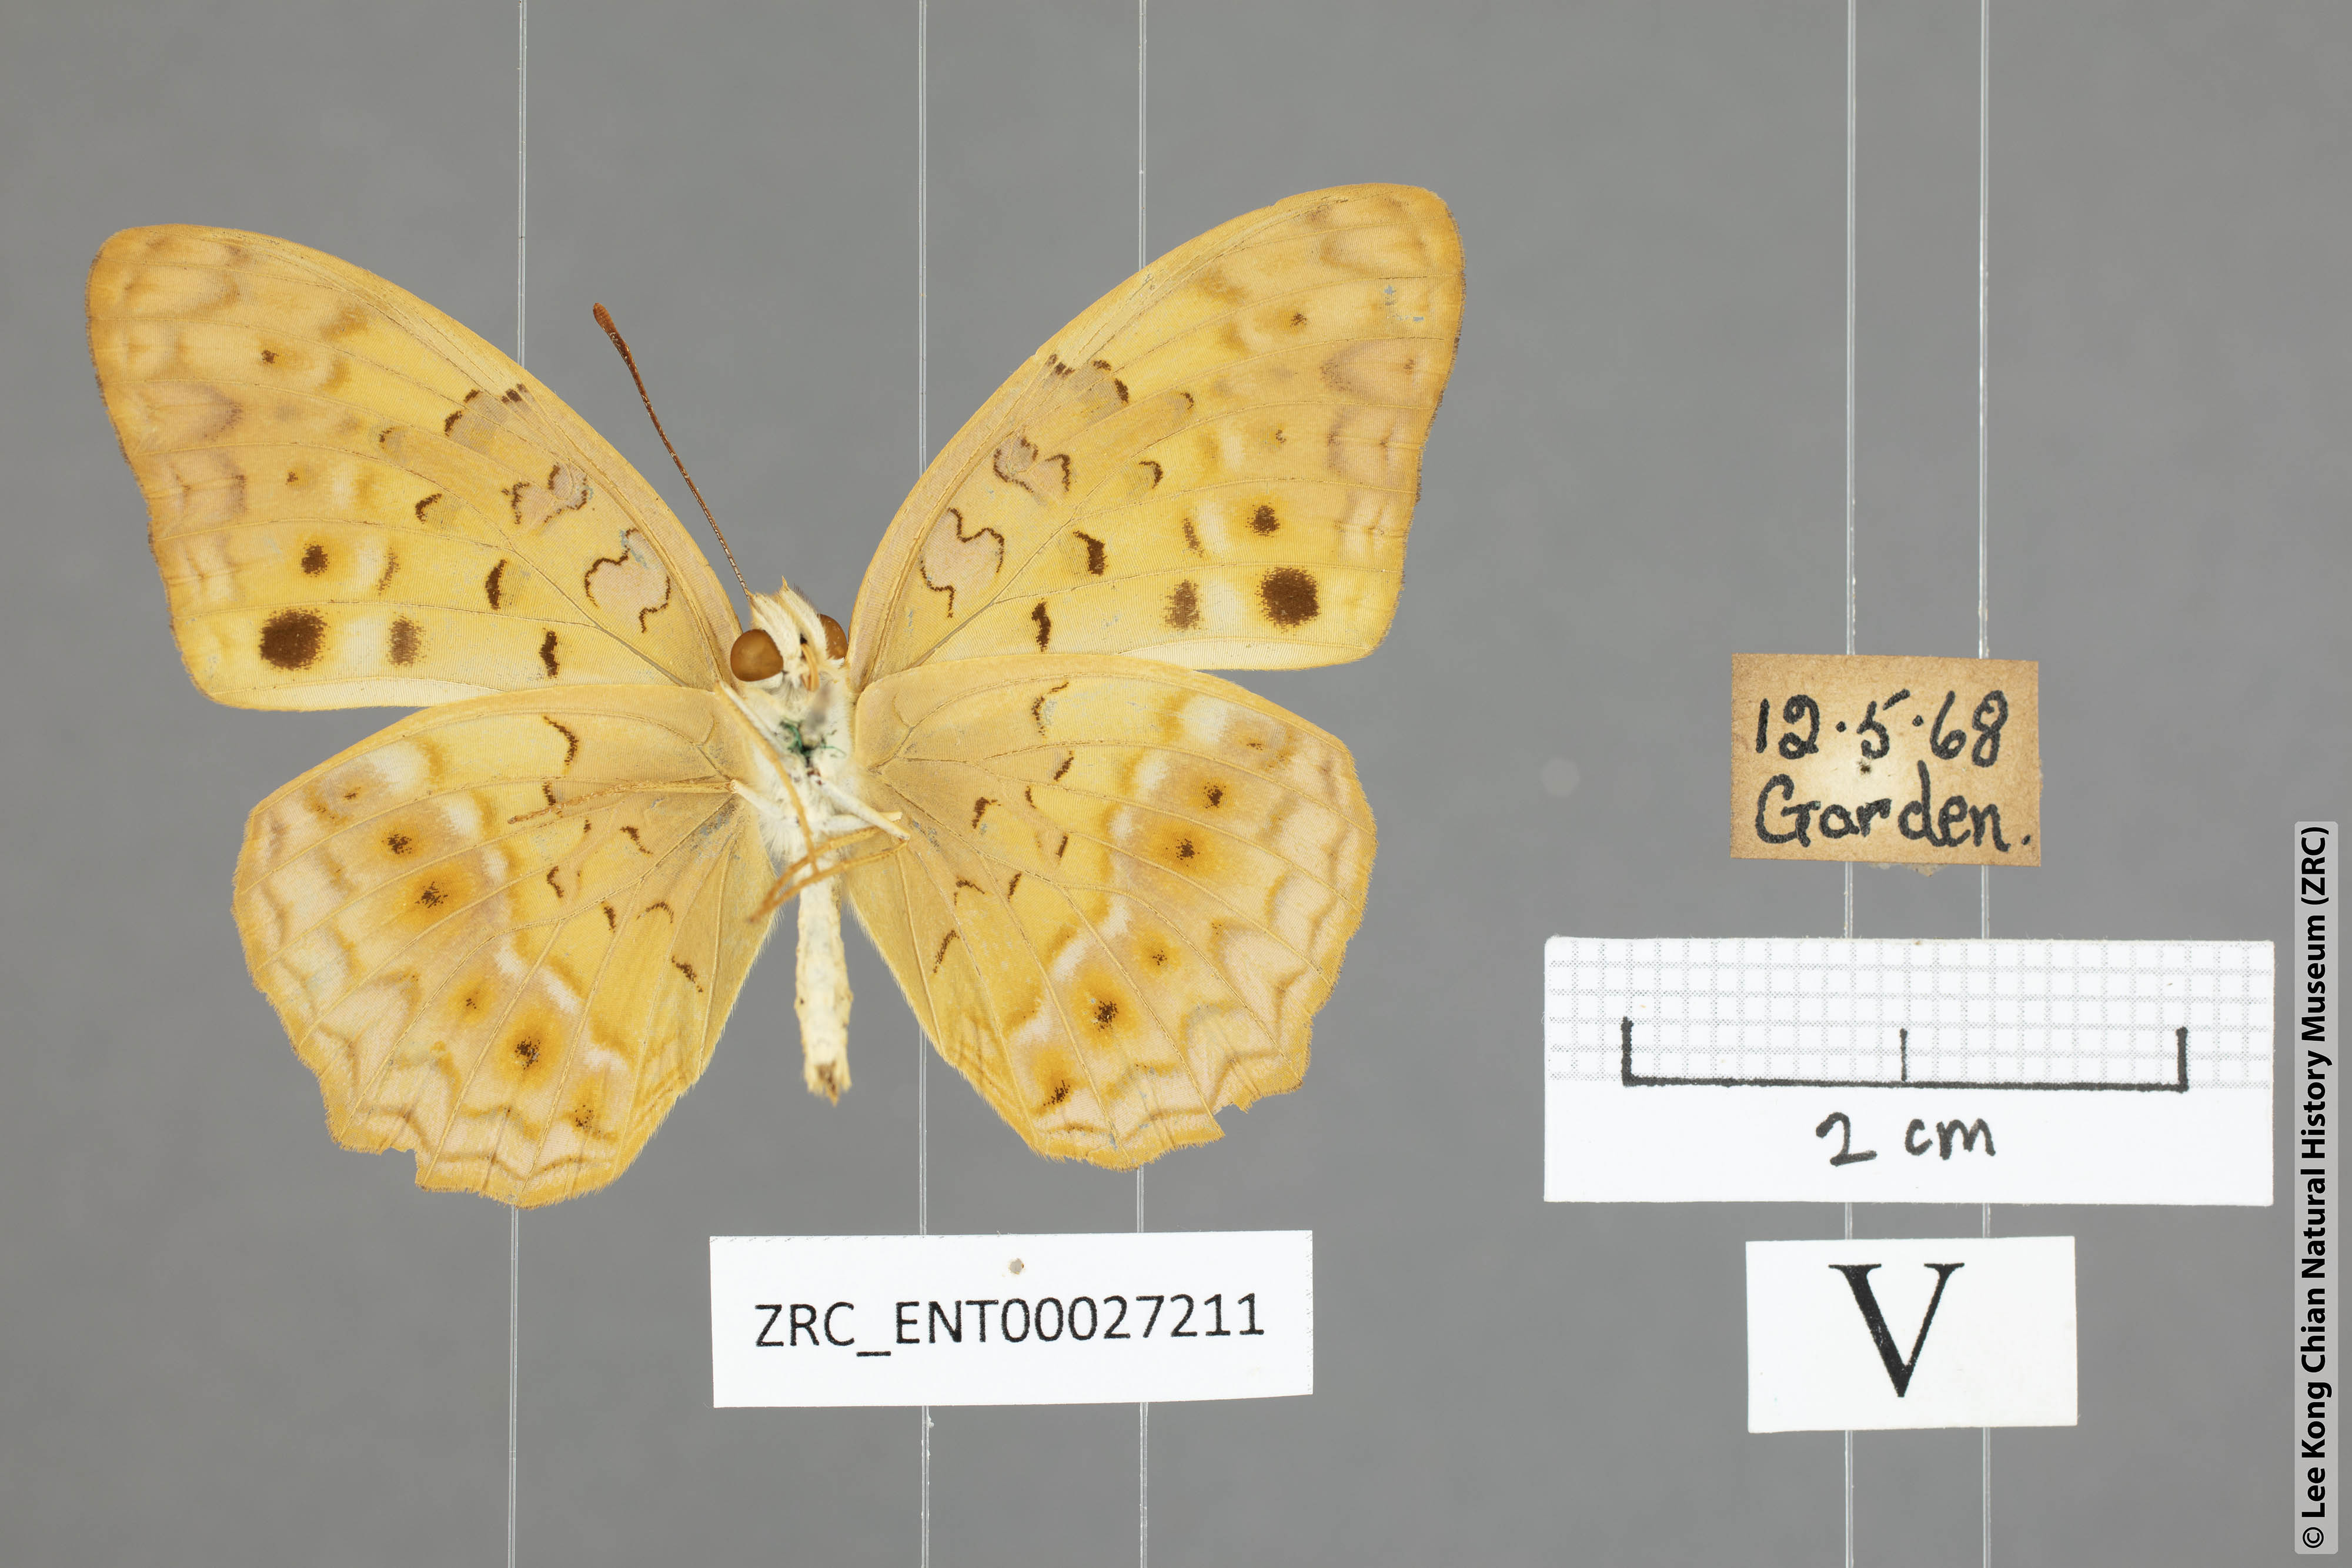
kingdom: Animalia
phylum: Arthropoda
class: Insecta
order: Lepidoptera
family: Nymphalidae
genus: Phalanta
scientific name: Phalanta phalantha
